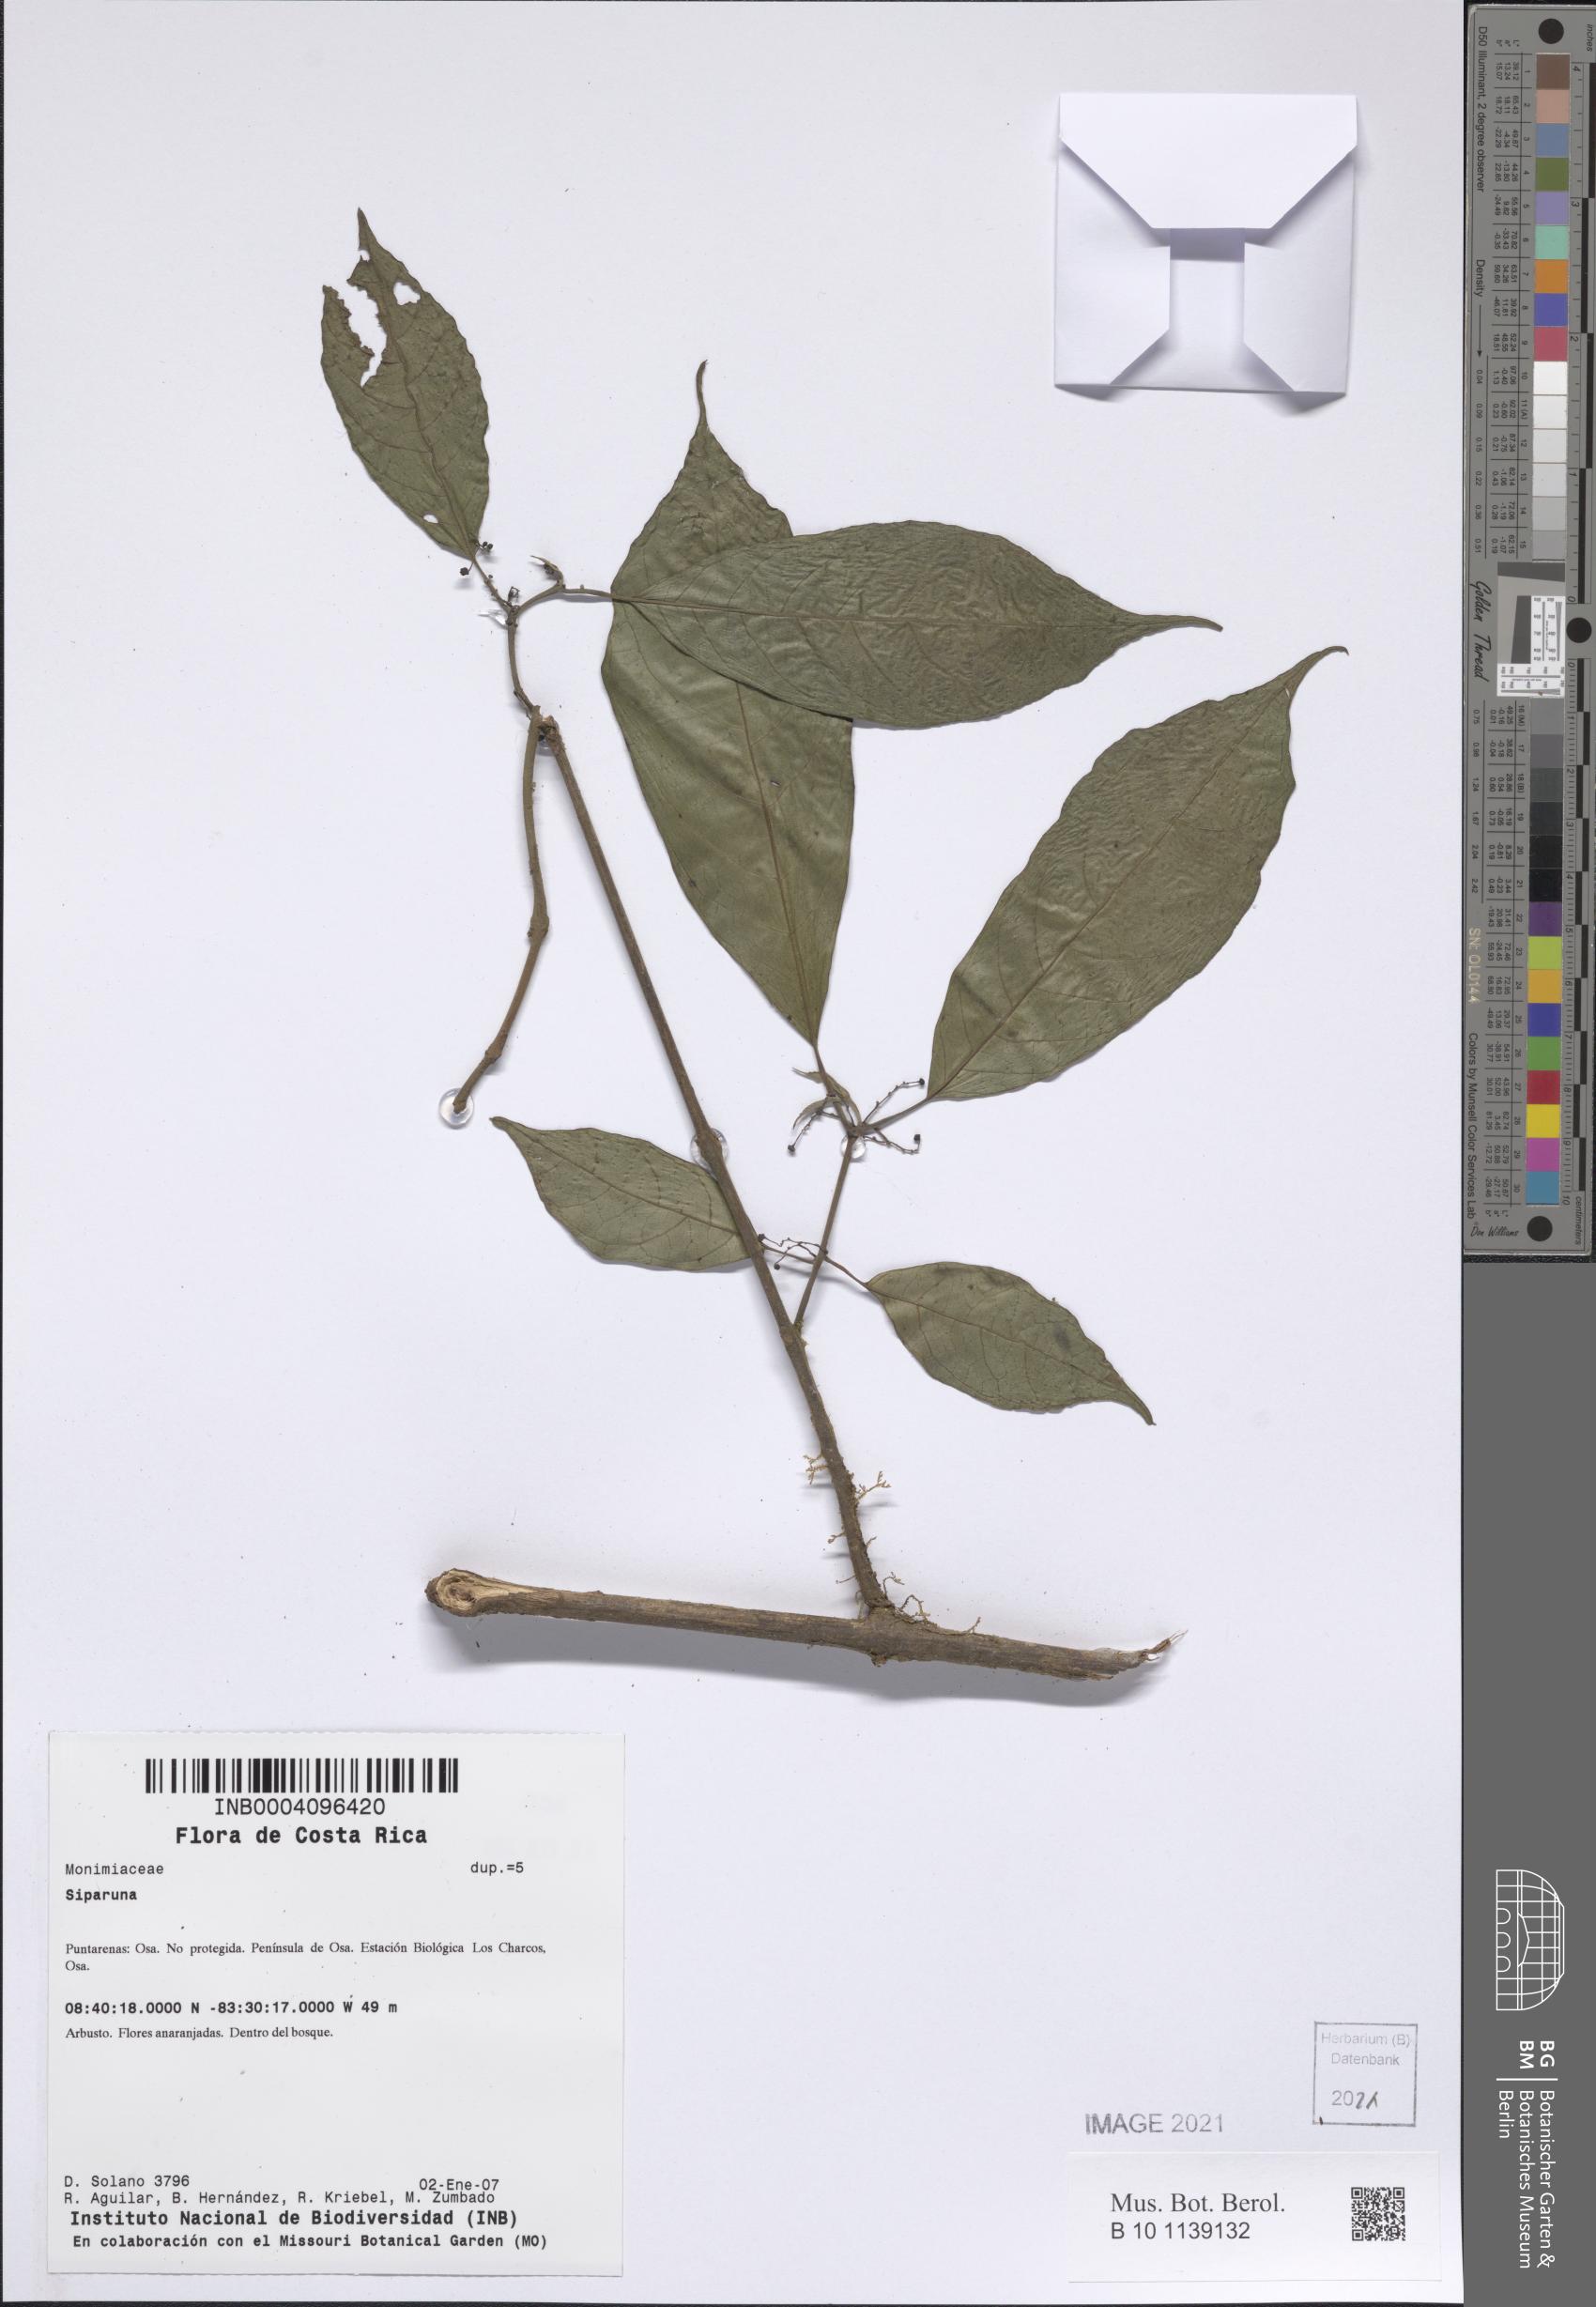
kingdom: Plantae
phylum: Tracheophyta
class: Magnoliopsida
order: Laurales
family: Siparunaceae
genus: Siparuna
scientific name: Siparuna
